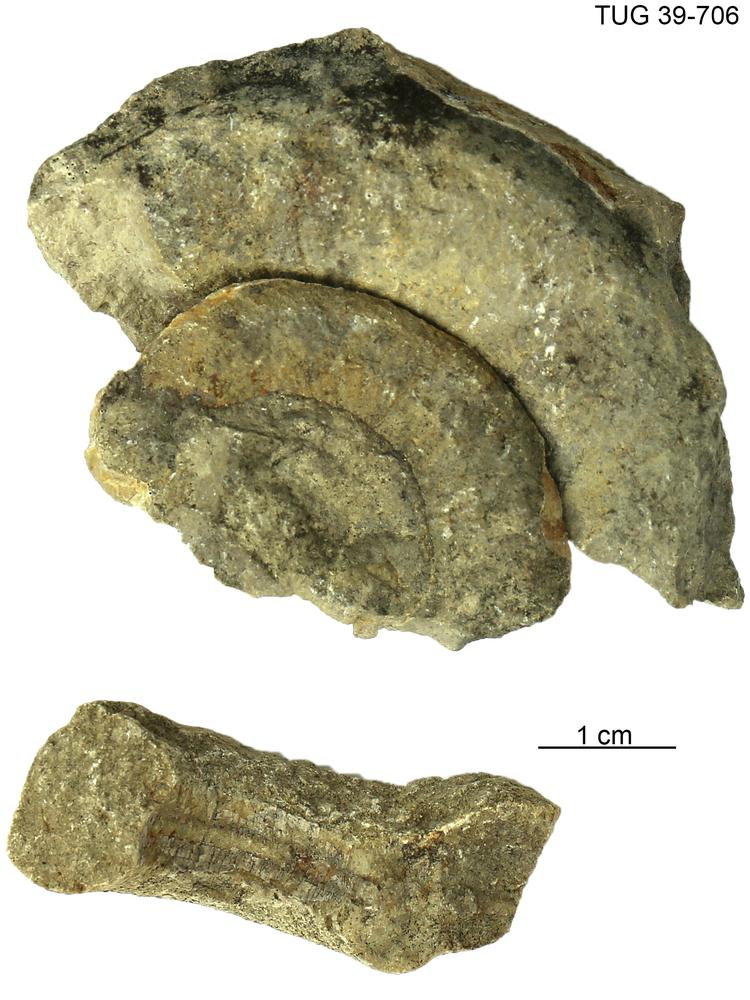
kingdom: Animalia
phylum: Mollusca
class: Cephalopoda
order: Nautilida
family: Nautilidae
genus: Curtoceras
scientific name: Curtoceras
